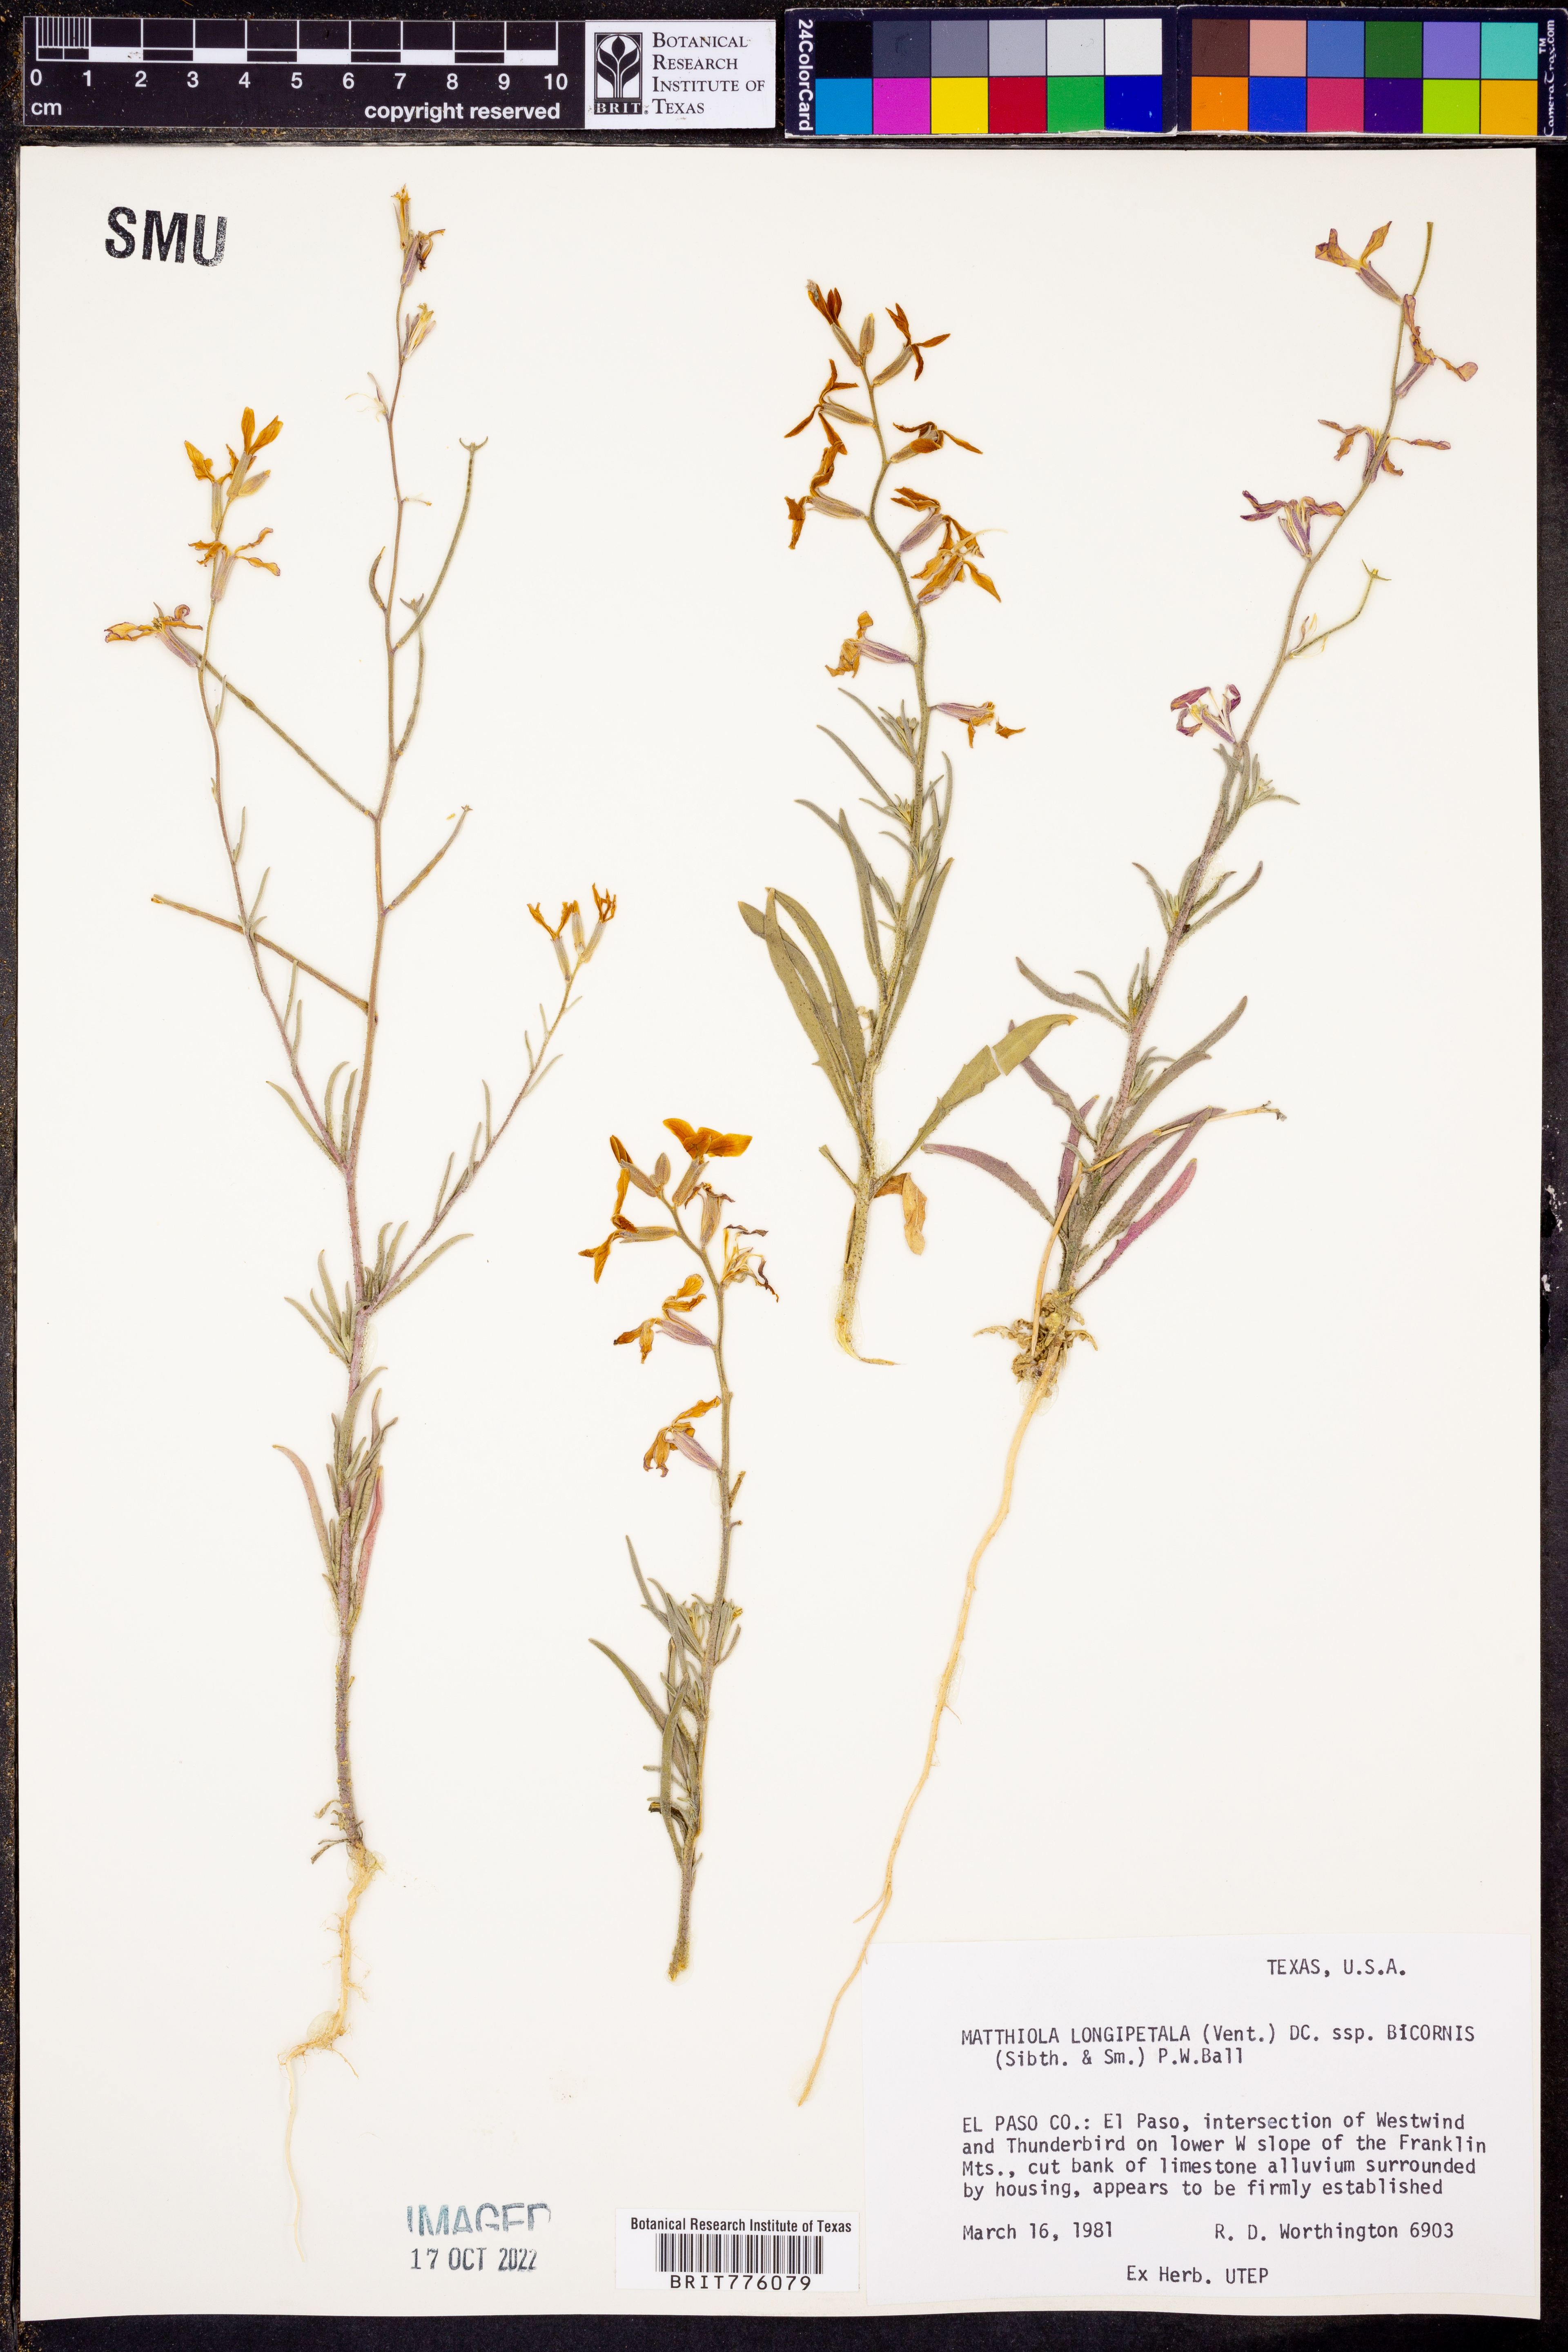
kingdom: Plantae
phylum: Tracheophyta
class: Magnoliopsida
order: Brassicales
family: Brassicaceae
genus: Matthiola
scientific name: Matthiola longipetala
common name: Night-scented stock
